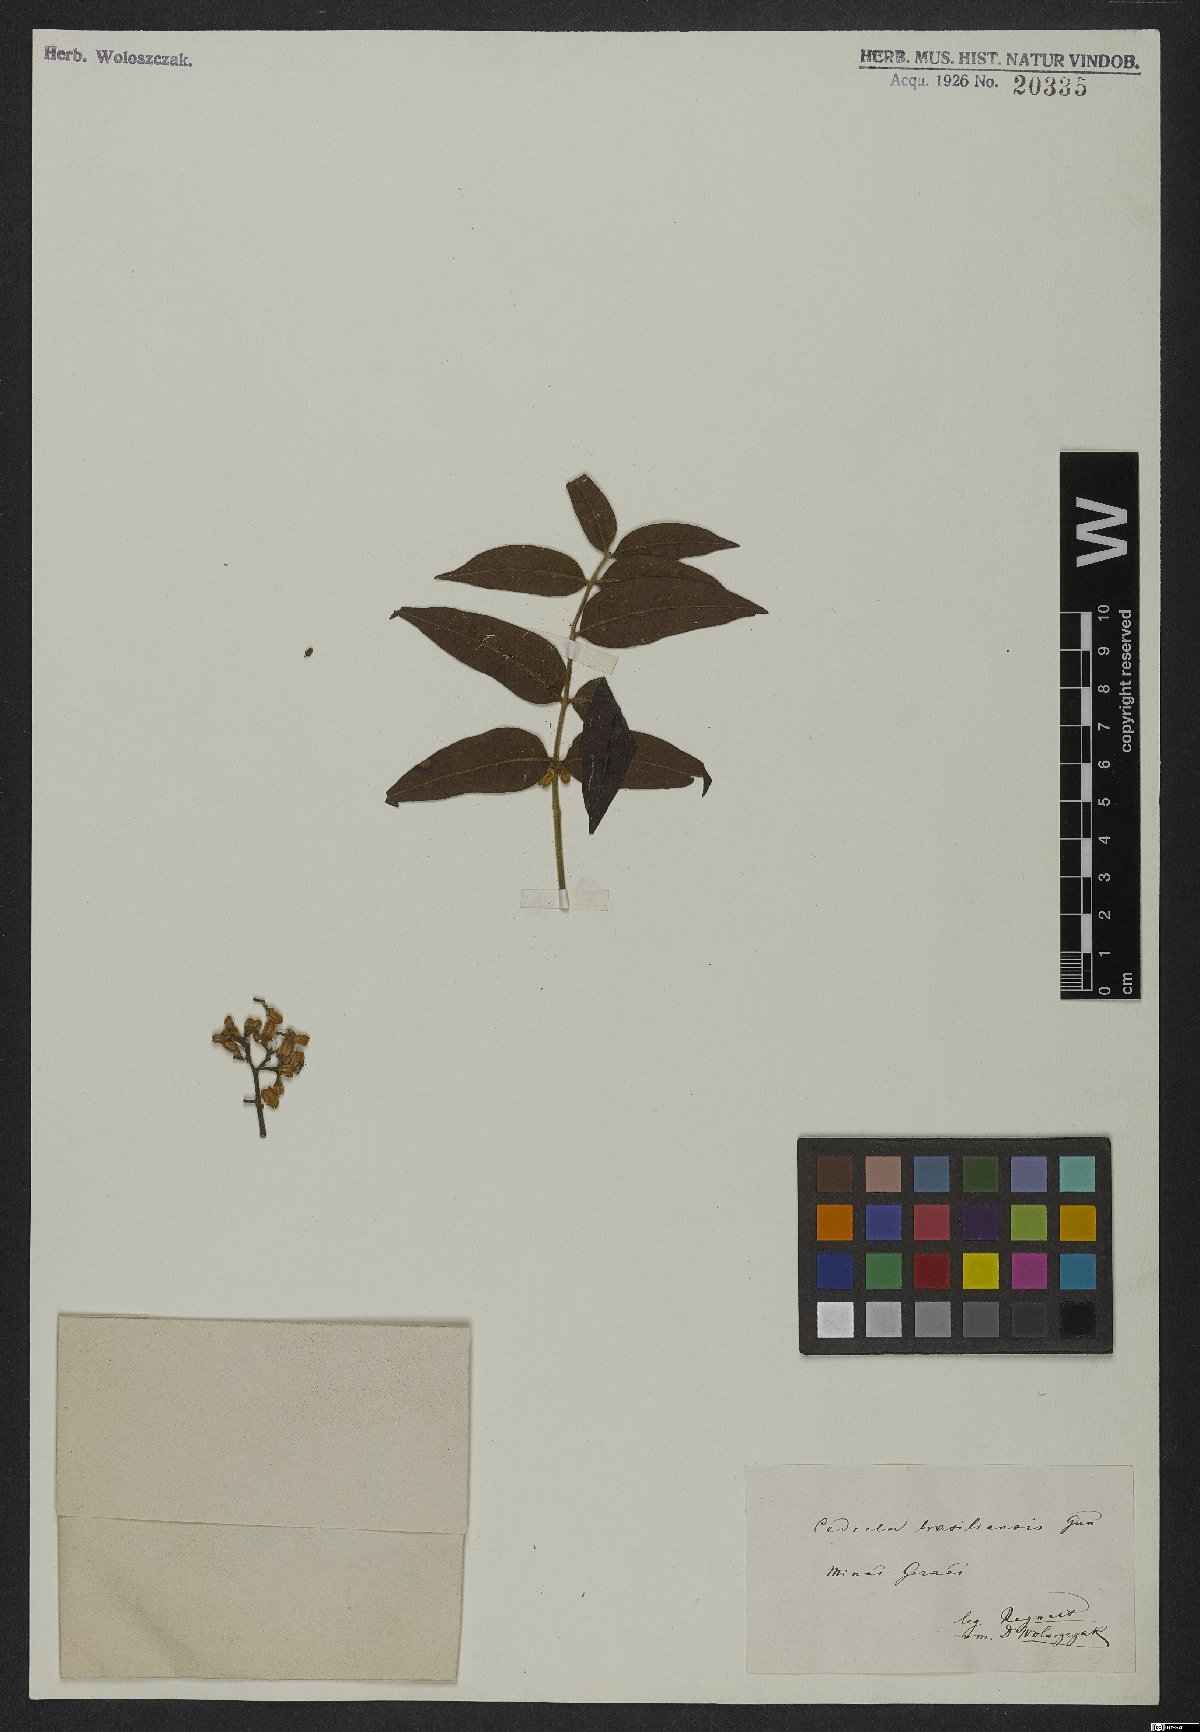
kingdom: Plantae
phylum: Tracheophyta
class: Magnoliopsida
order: Sapindales
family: Meliaceae
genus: Cedrela
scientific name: Cedrela fissilis
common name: Argentine cedar
